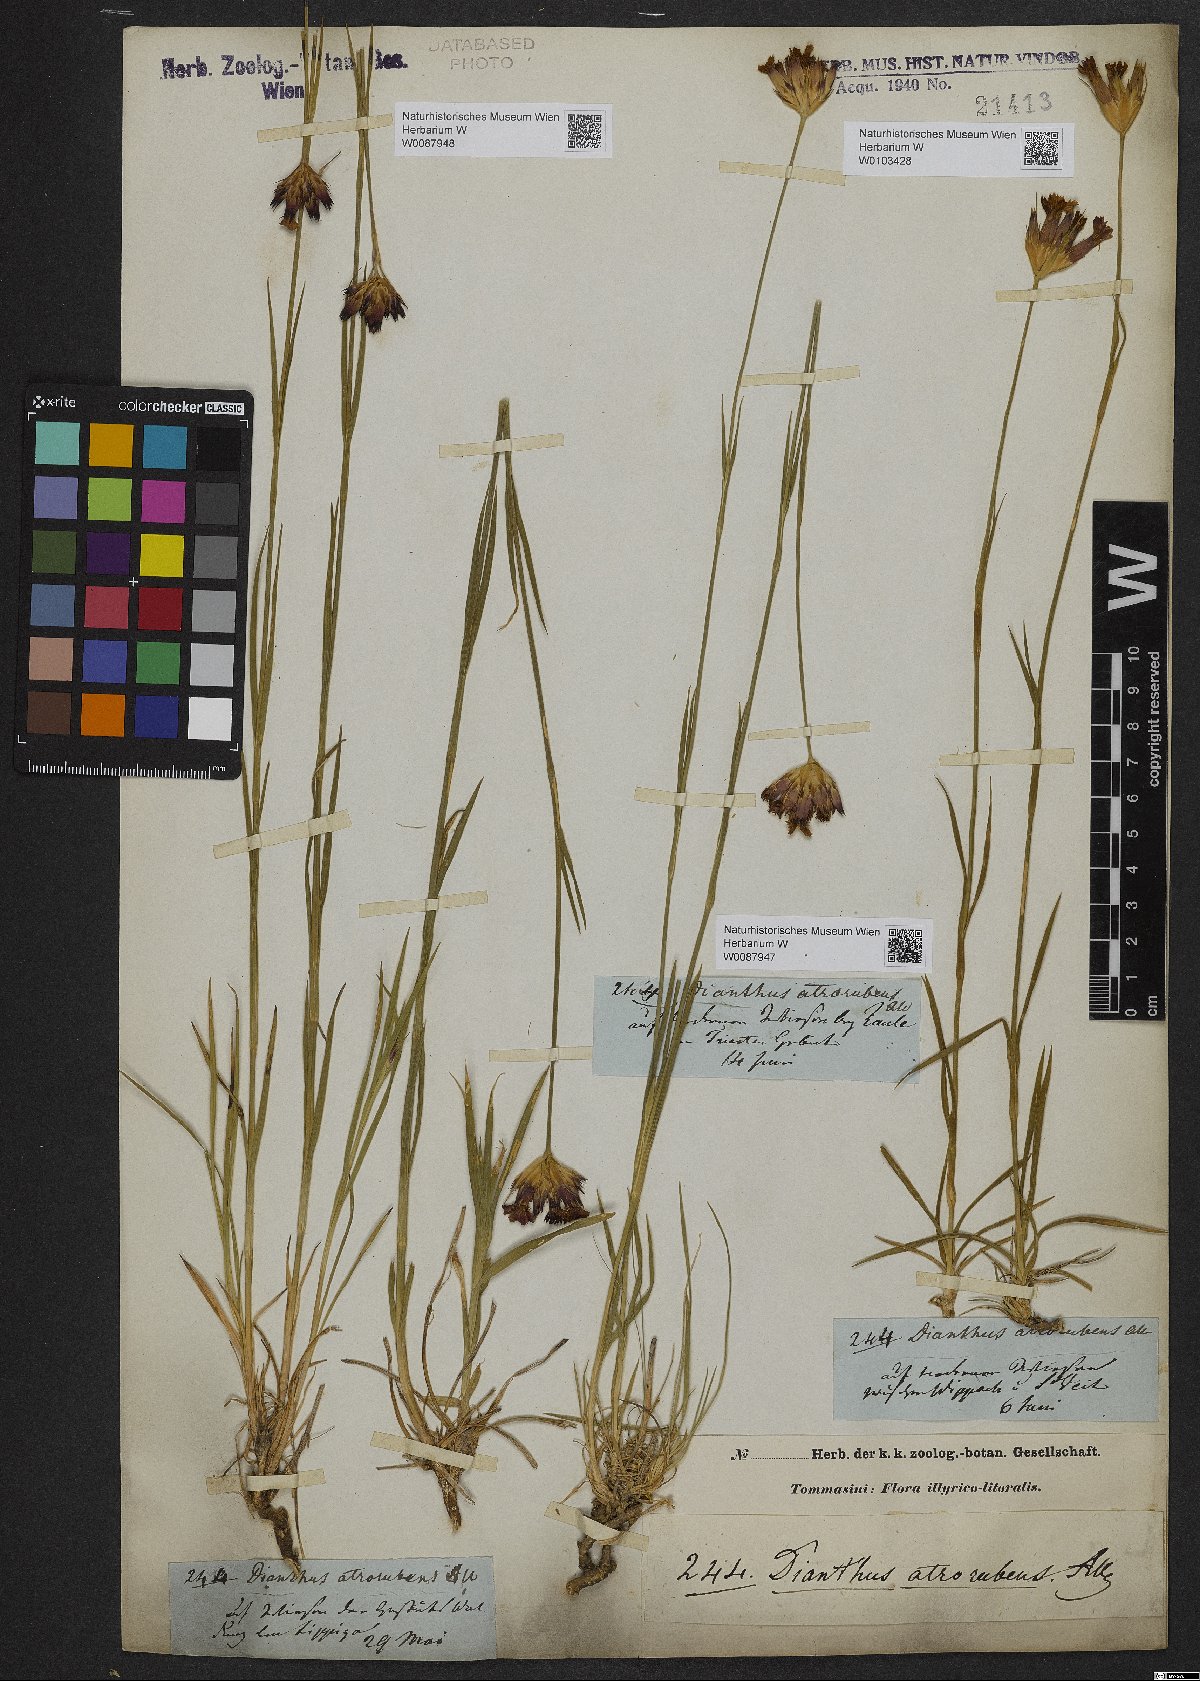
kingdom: Plantae
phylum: Tracheophyta
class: Magnoliopsida
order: Caryophyllales
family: Caryophyllaceae
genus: Dianthus
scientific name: Dianthus carthusianorum
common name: Carthusian pink
